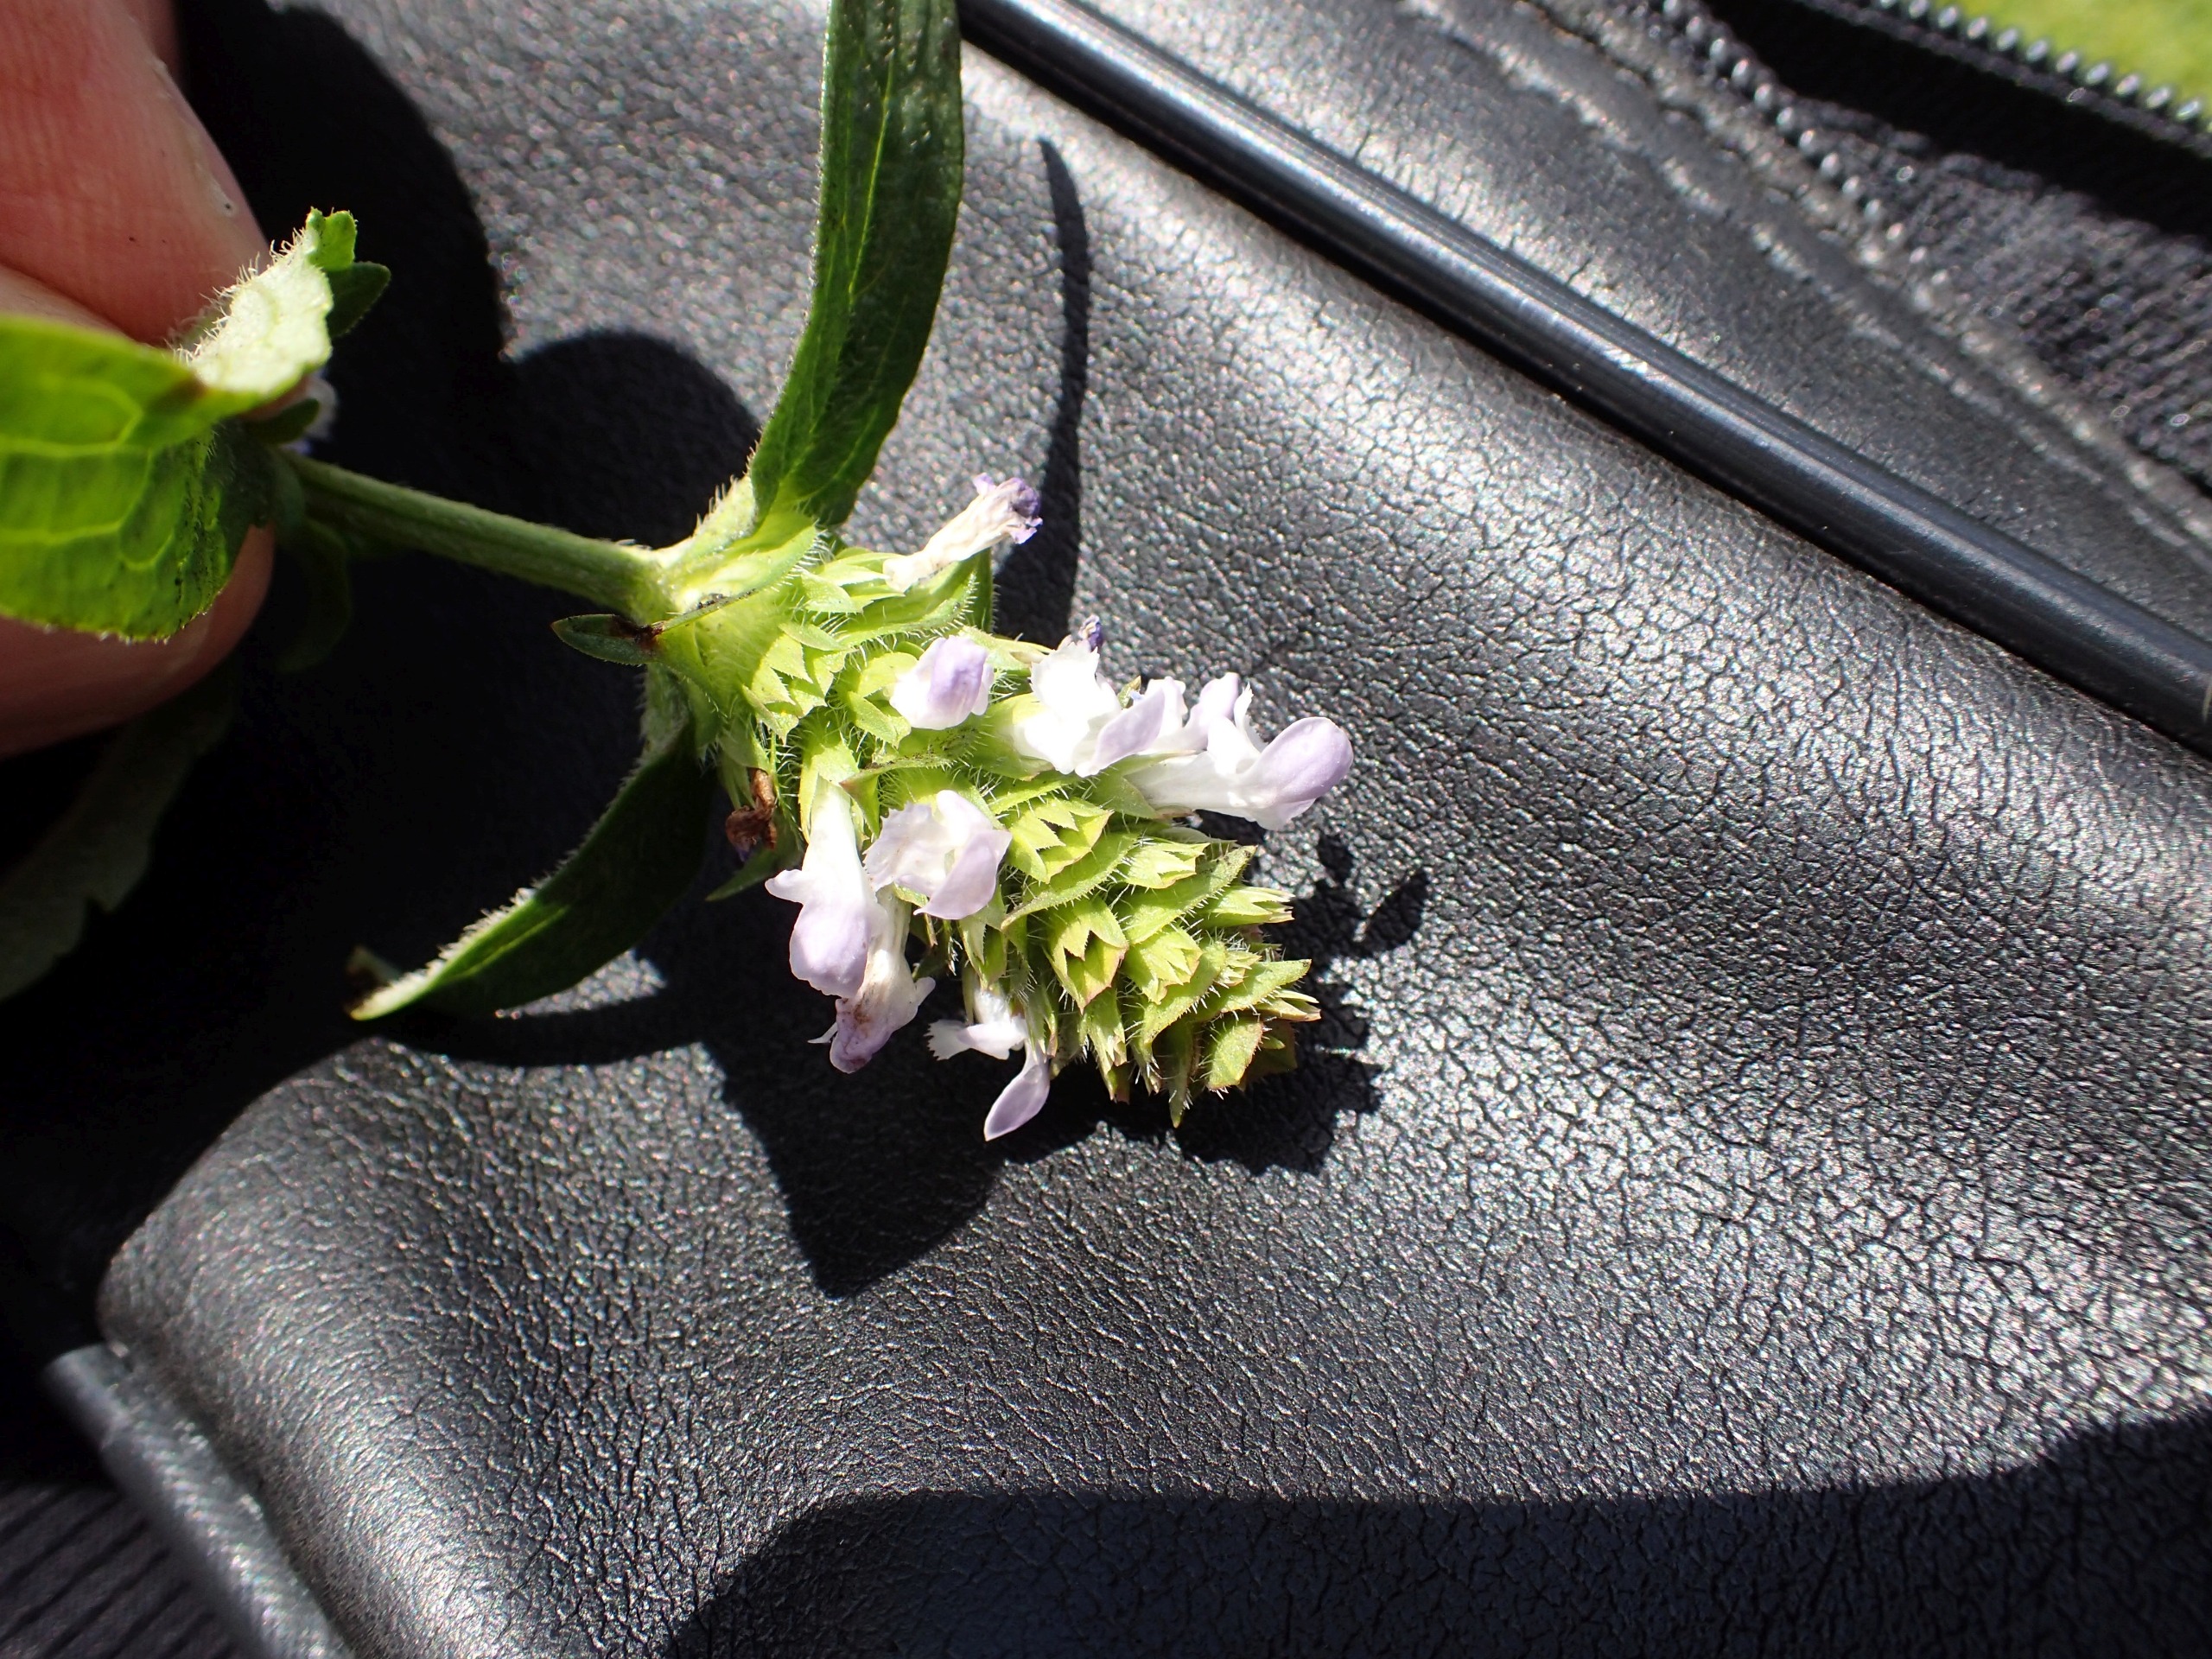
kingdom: Plantae
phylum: Tracheophyta
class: Magnoliopsida
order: Lamiales
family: Lamiaceae
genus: Prunella
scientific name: Prunella vulgaris
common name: Almindelig brunelle
